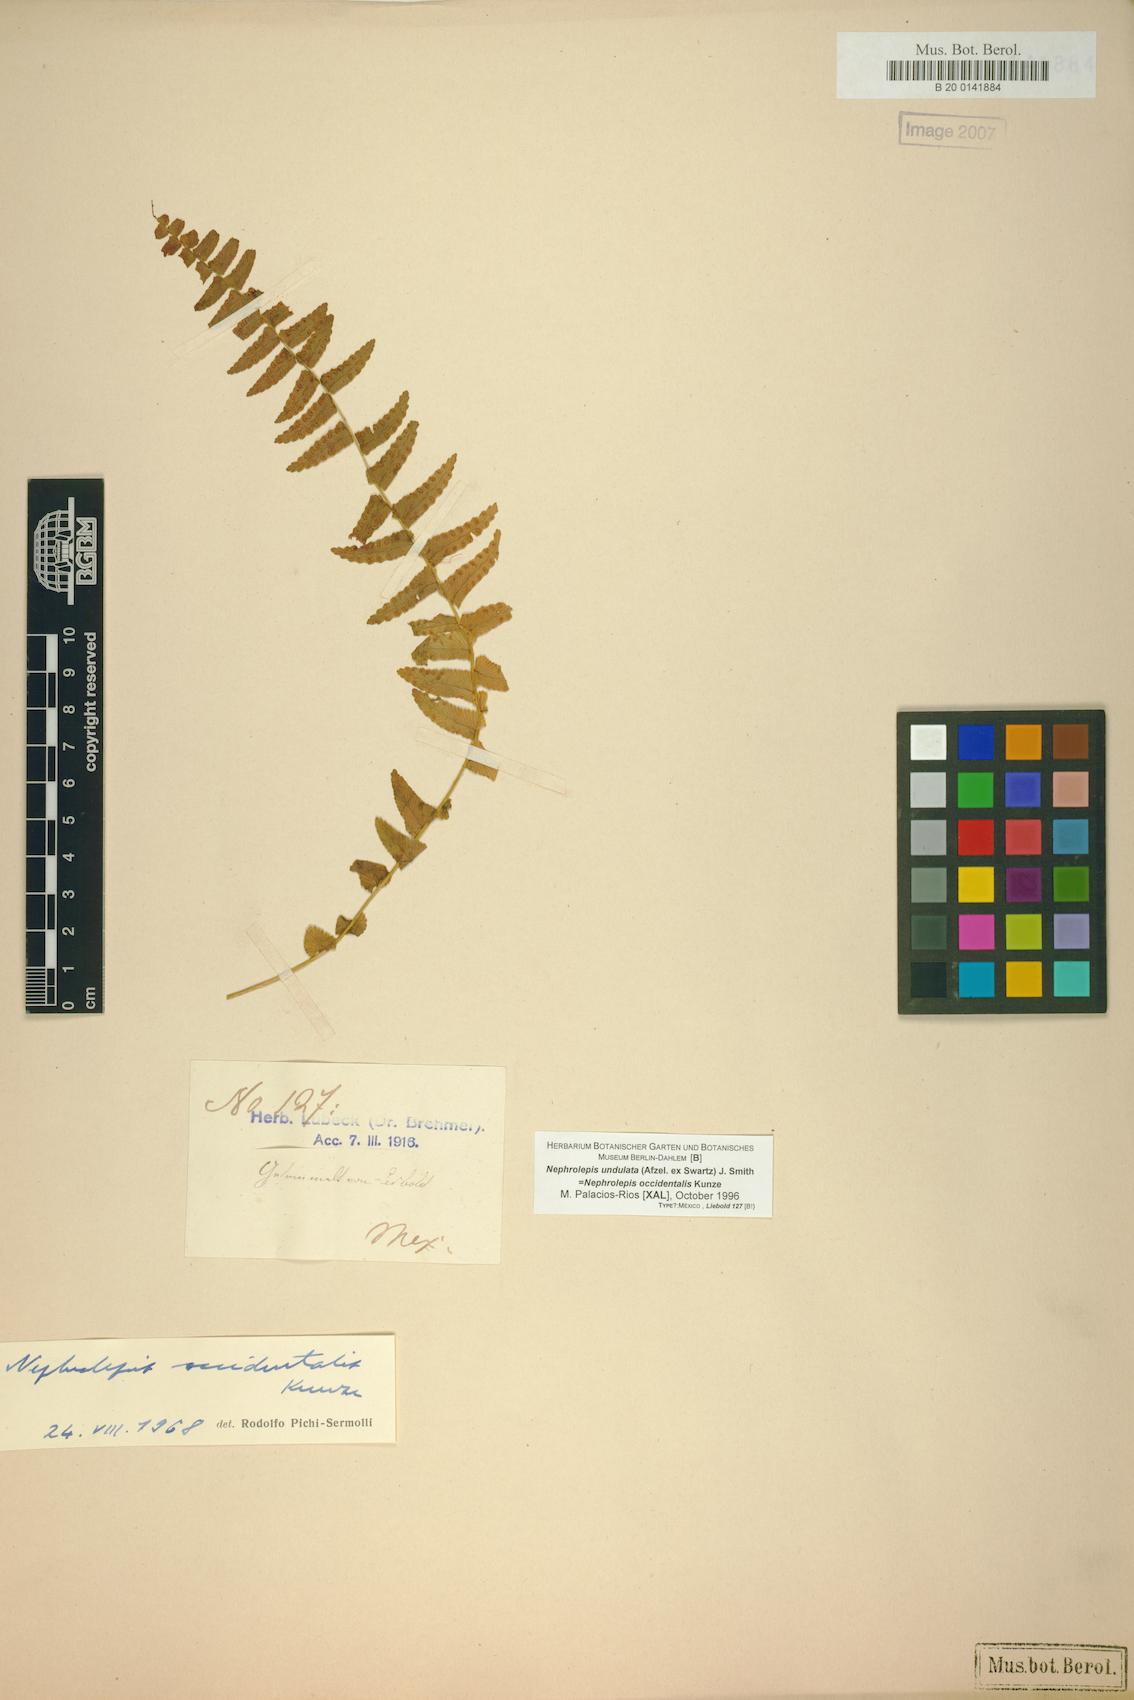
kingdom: Plantae
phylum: Tracheophyta
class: Polypodiopsida
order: Polypodiales
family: Nephrolepidaceae
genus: Nephrolepis
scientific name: Nephrolepis undulata
